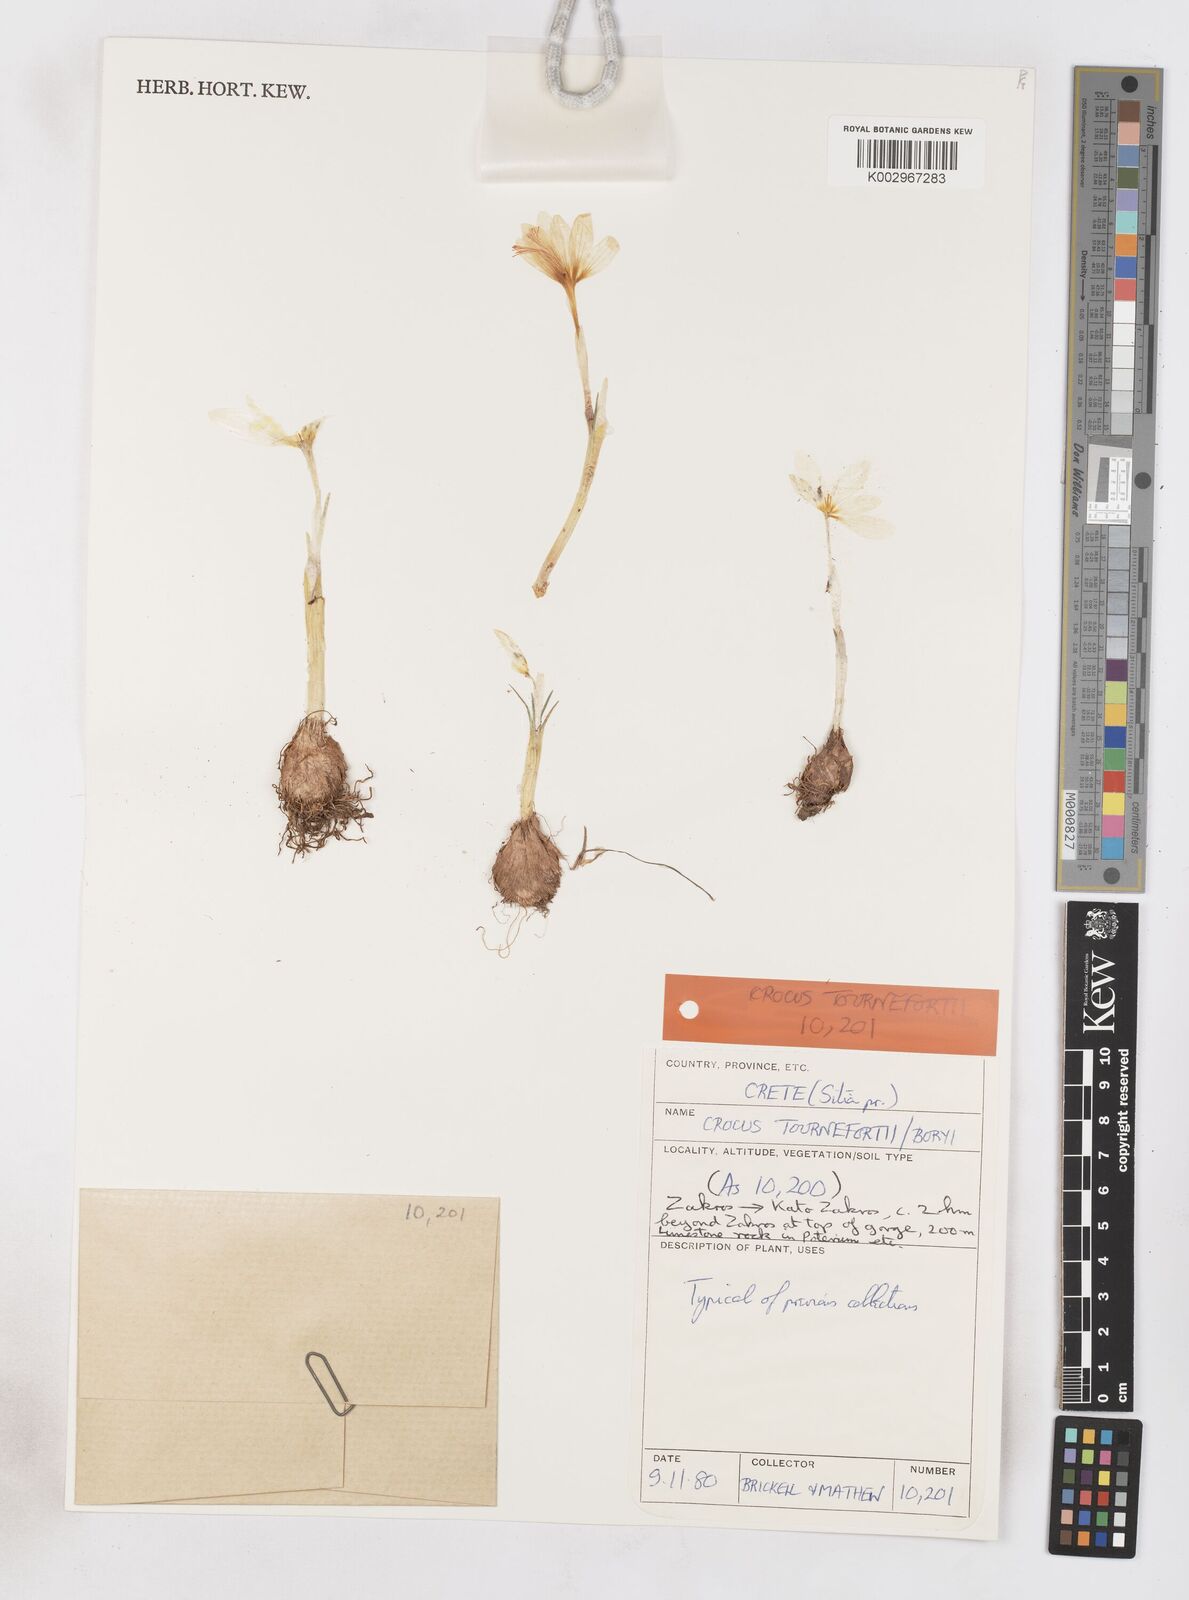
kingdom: Plantae
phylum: Tracheophyta
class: Liliopsida
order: Asparagales
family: Iridaceae
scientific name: Iridaceae
